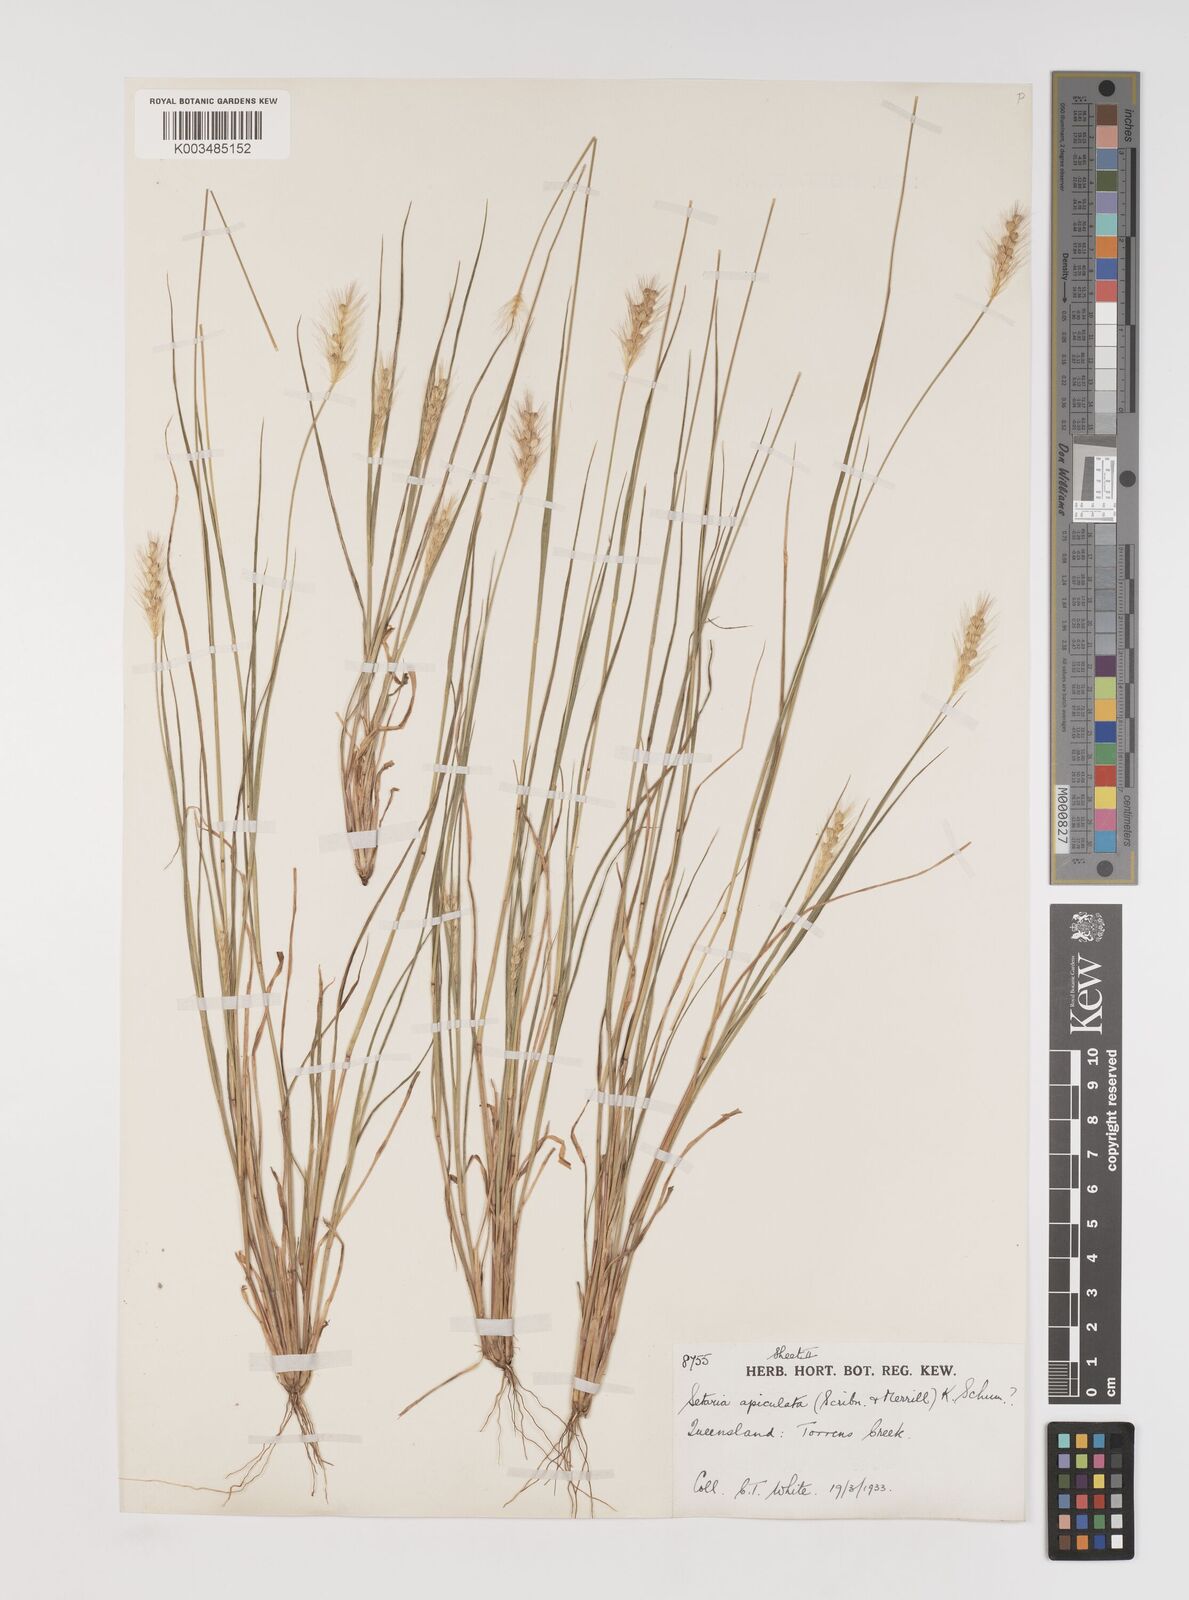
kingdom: Plantae
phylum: Tracheophyta
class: Liliopsida
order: Poales
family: Poaceae
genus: Setaria
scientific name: Setaria apiculata
